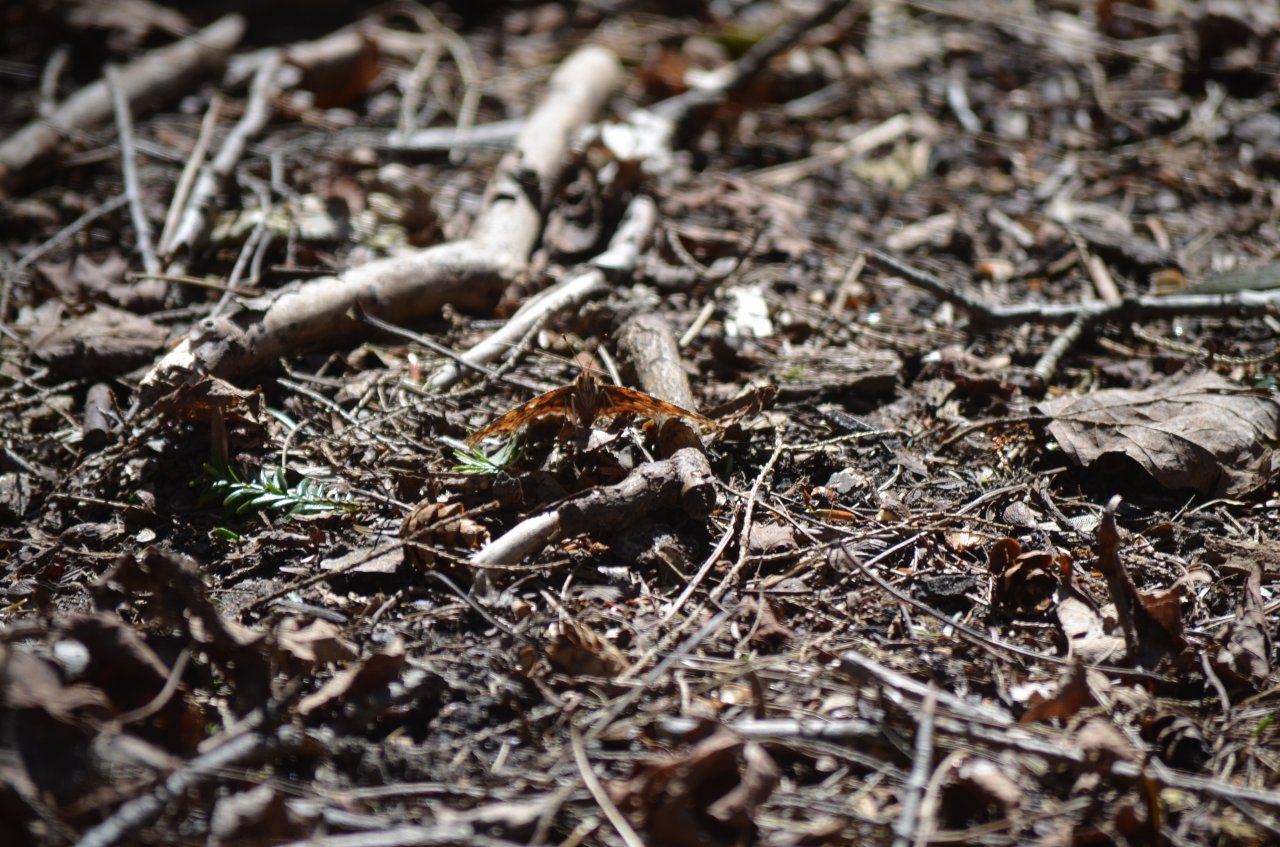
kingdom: Animalia
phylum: Arthropoda
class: Insecta
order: Lepidoptera
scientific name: Lepidoptera
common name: Butterflies
